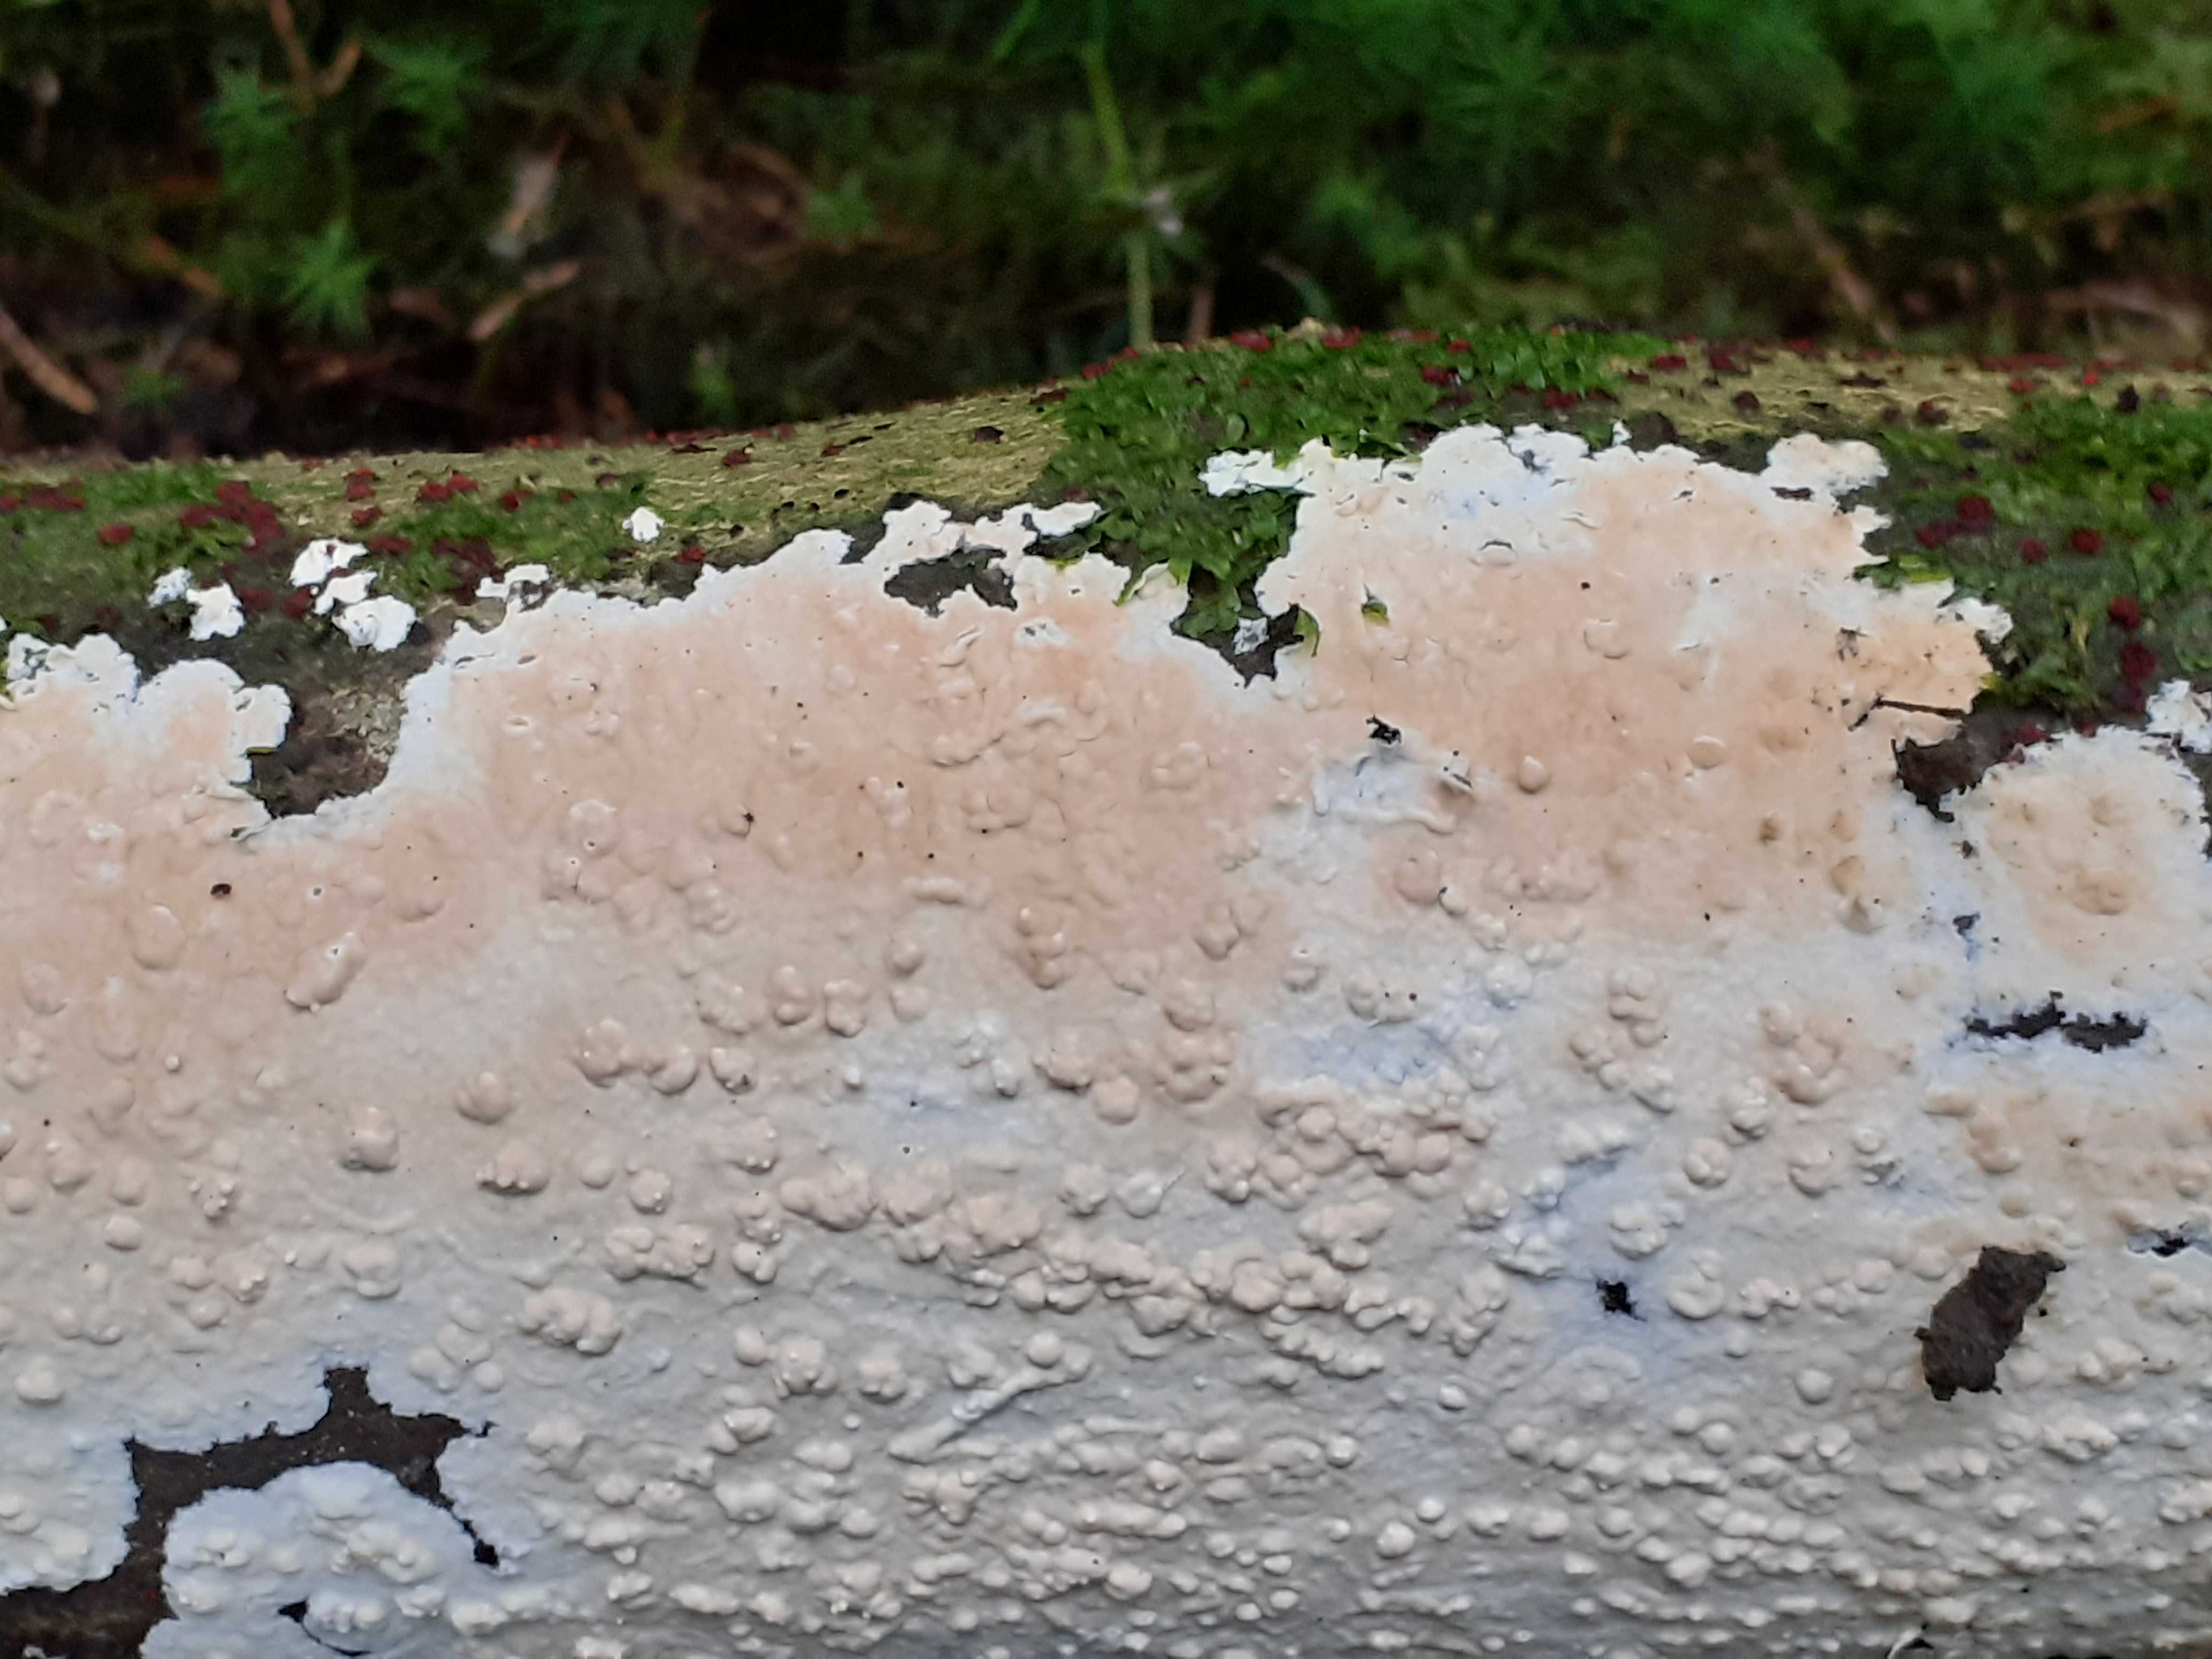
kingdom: Fungi
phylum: Basidiomycota
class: Agaricomycetes
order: Agaricales
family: Physalacriaceae
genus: Cylindrobasidium
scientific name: Cylindrobasidium evolvens
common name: sprækkehinde
